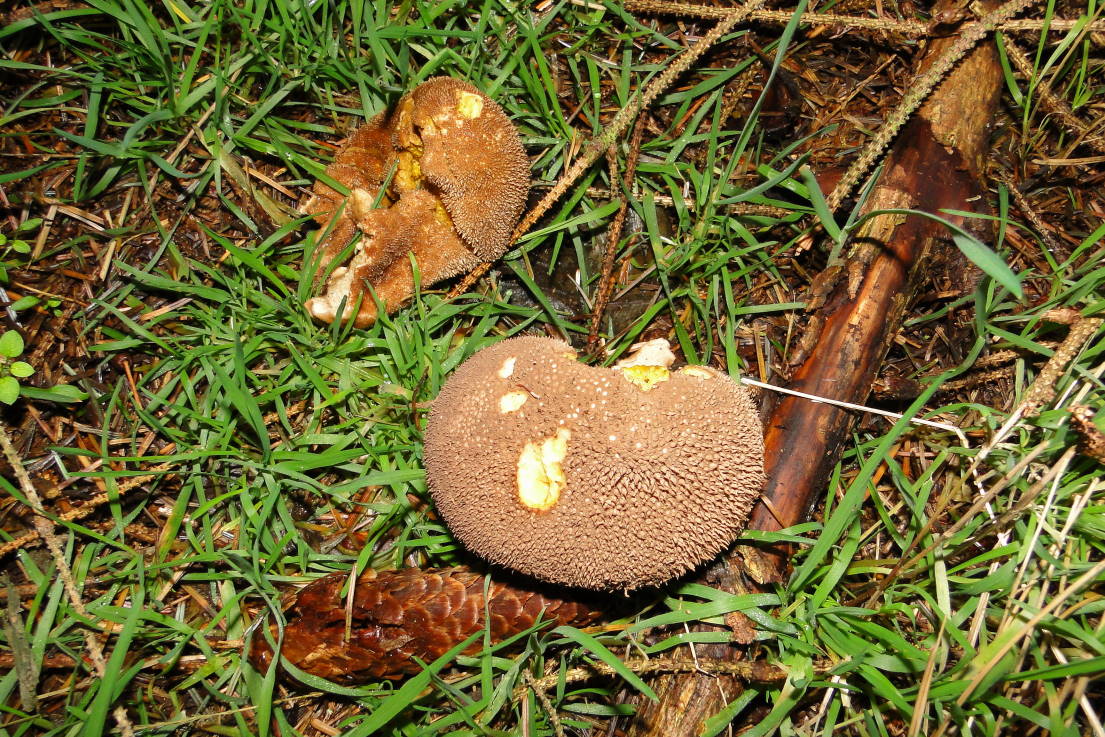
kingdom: Fungi
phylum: Basidiomycota
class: Agaricomycetes
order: Agaricales
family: Lycoperdaceae
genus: Lycoperdon
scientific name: Lycoperdon nigrescens
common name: sortagtig støvbold
